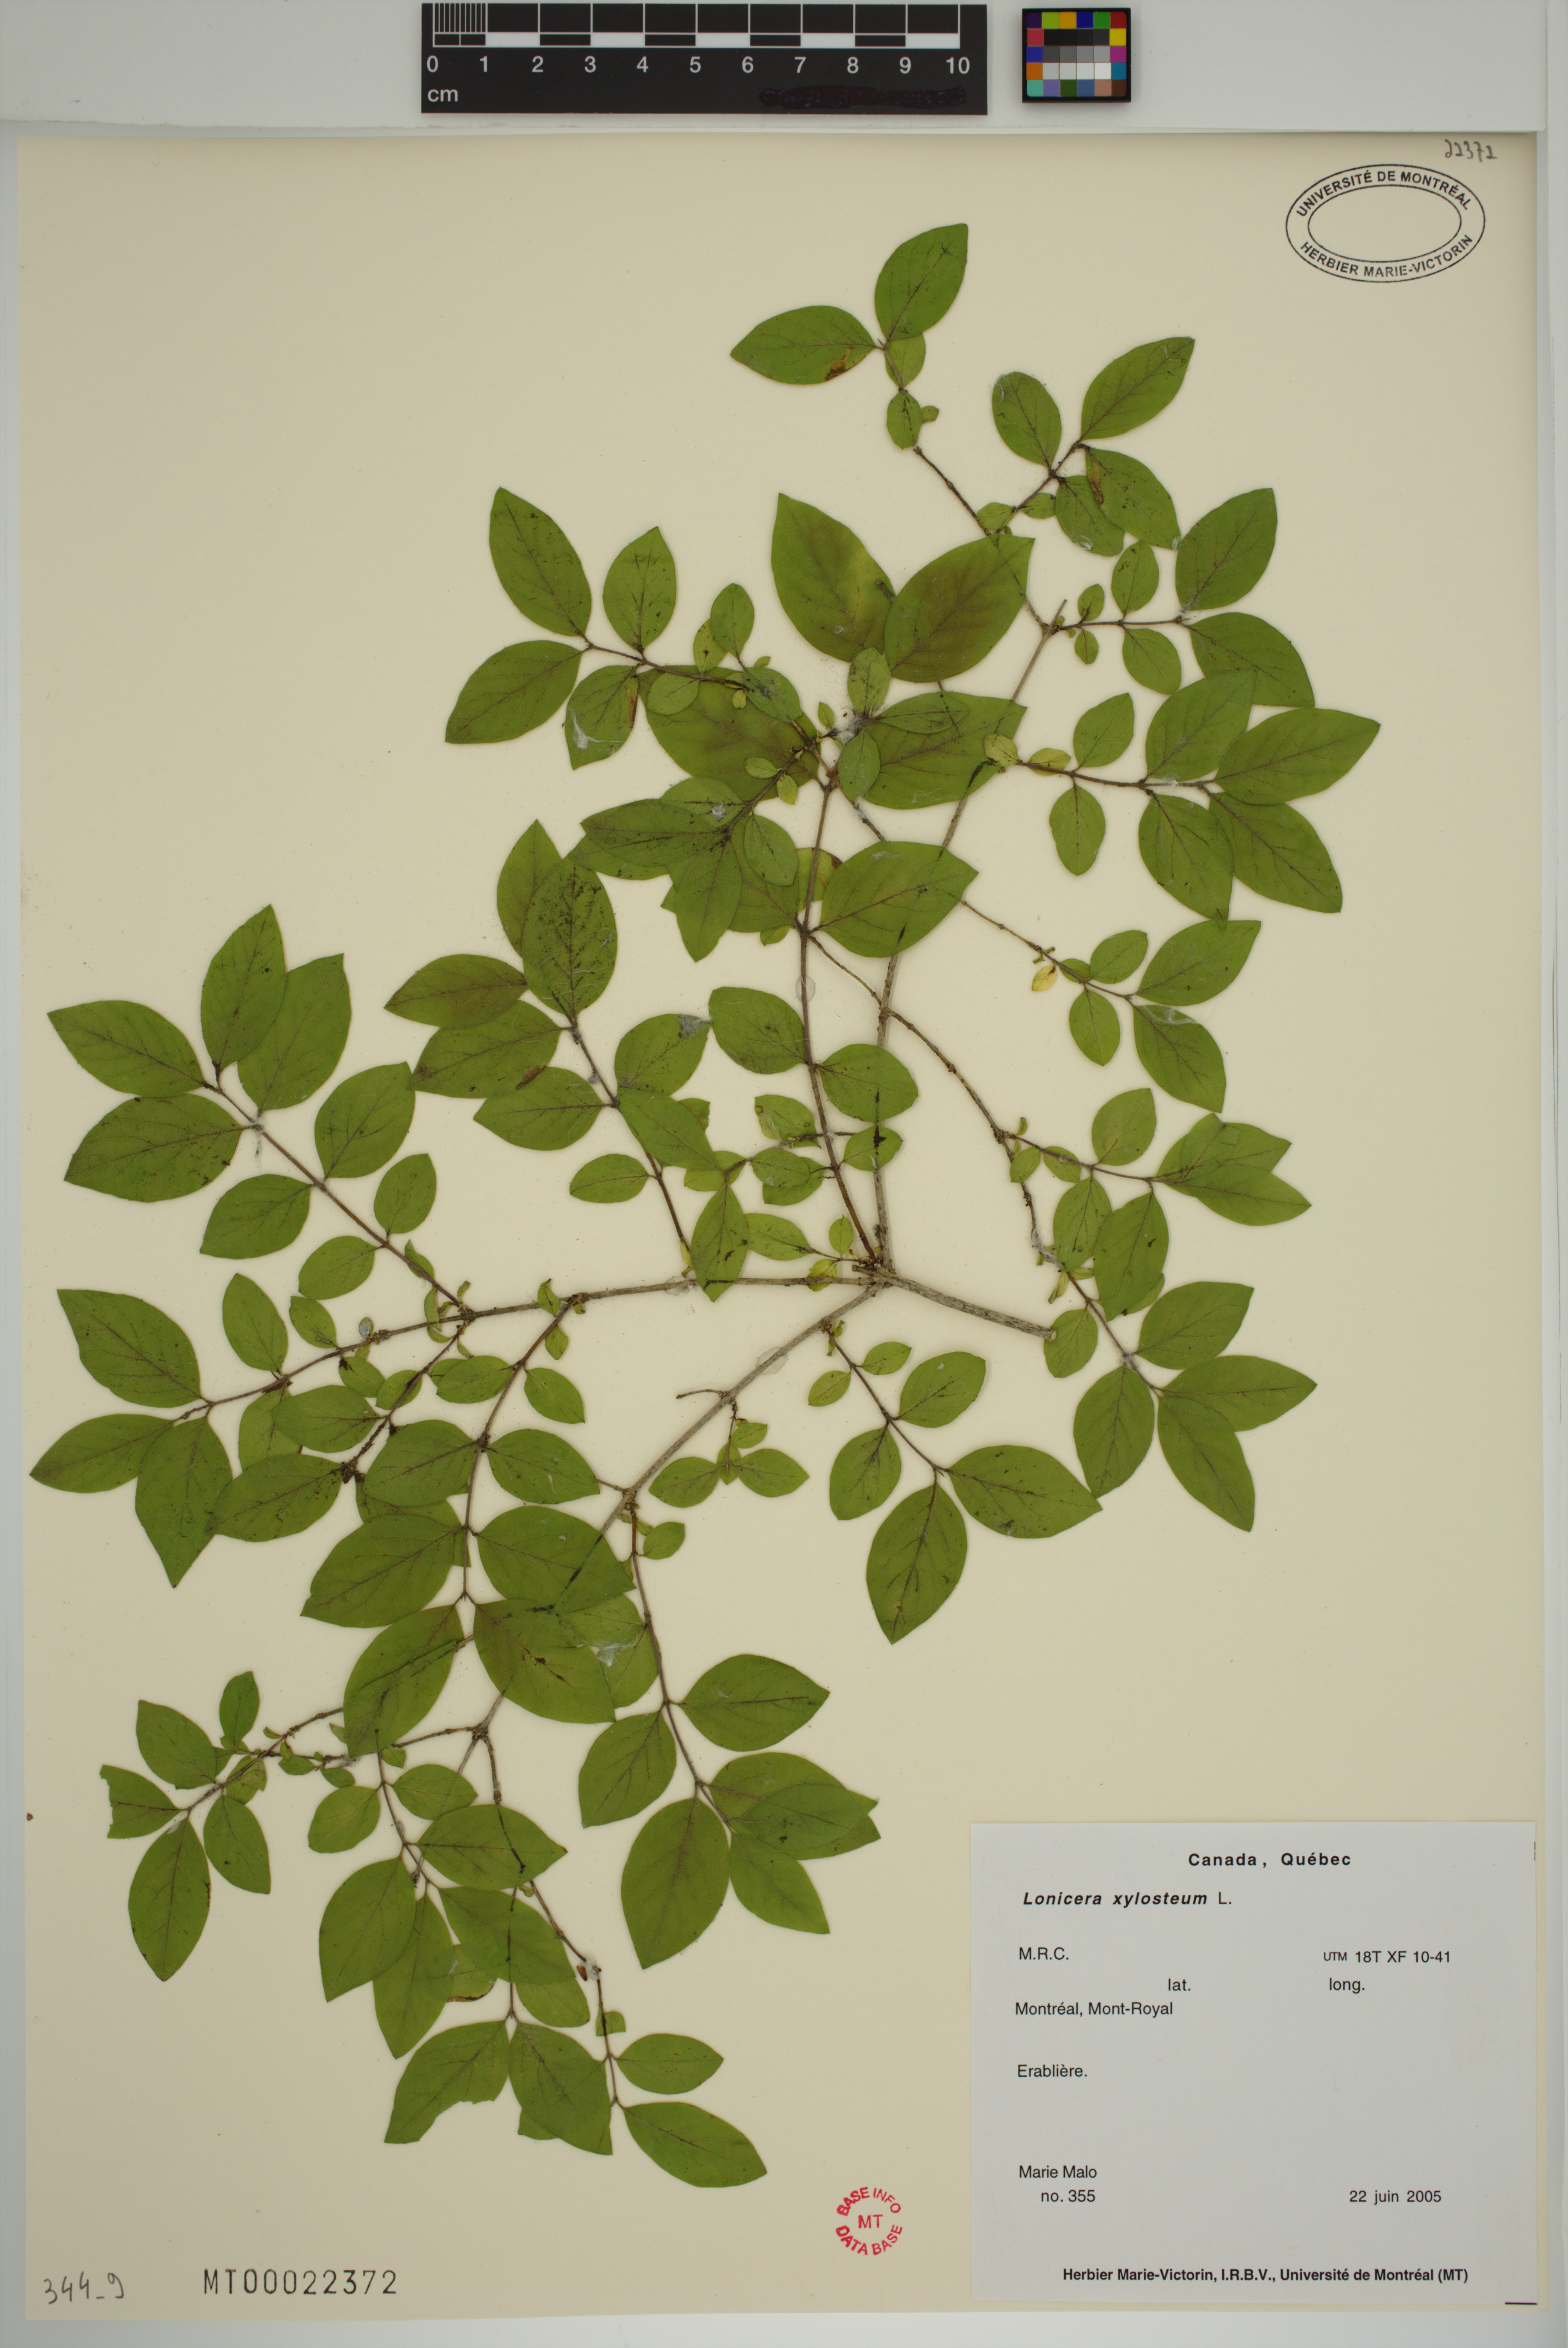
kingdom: Plantae
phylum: Tracheophyta
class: Magnoliopsida
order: Dipsacales
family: Caprifoliaceae
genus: Lonicera
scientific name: Lonicera tatarica
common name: Tatarian honeysuckle
